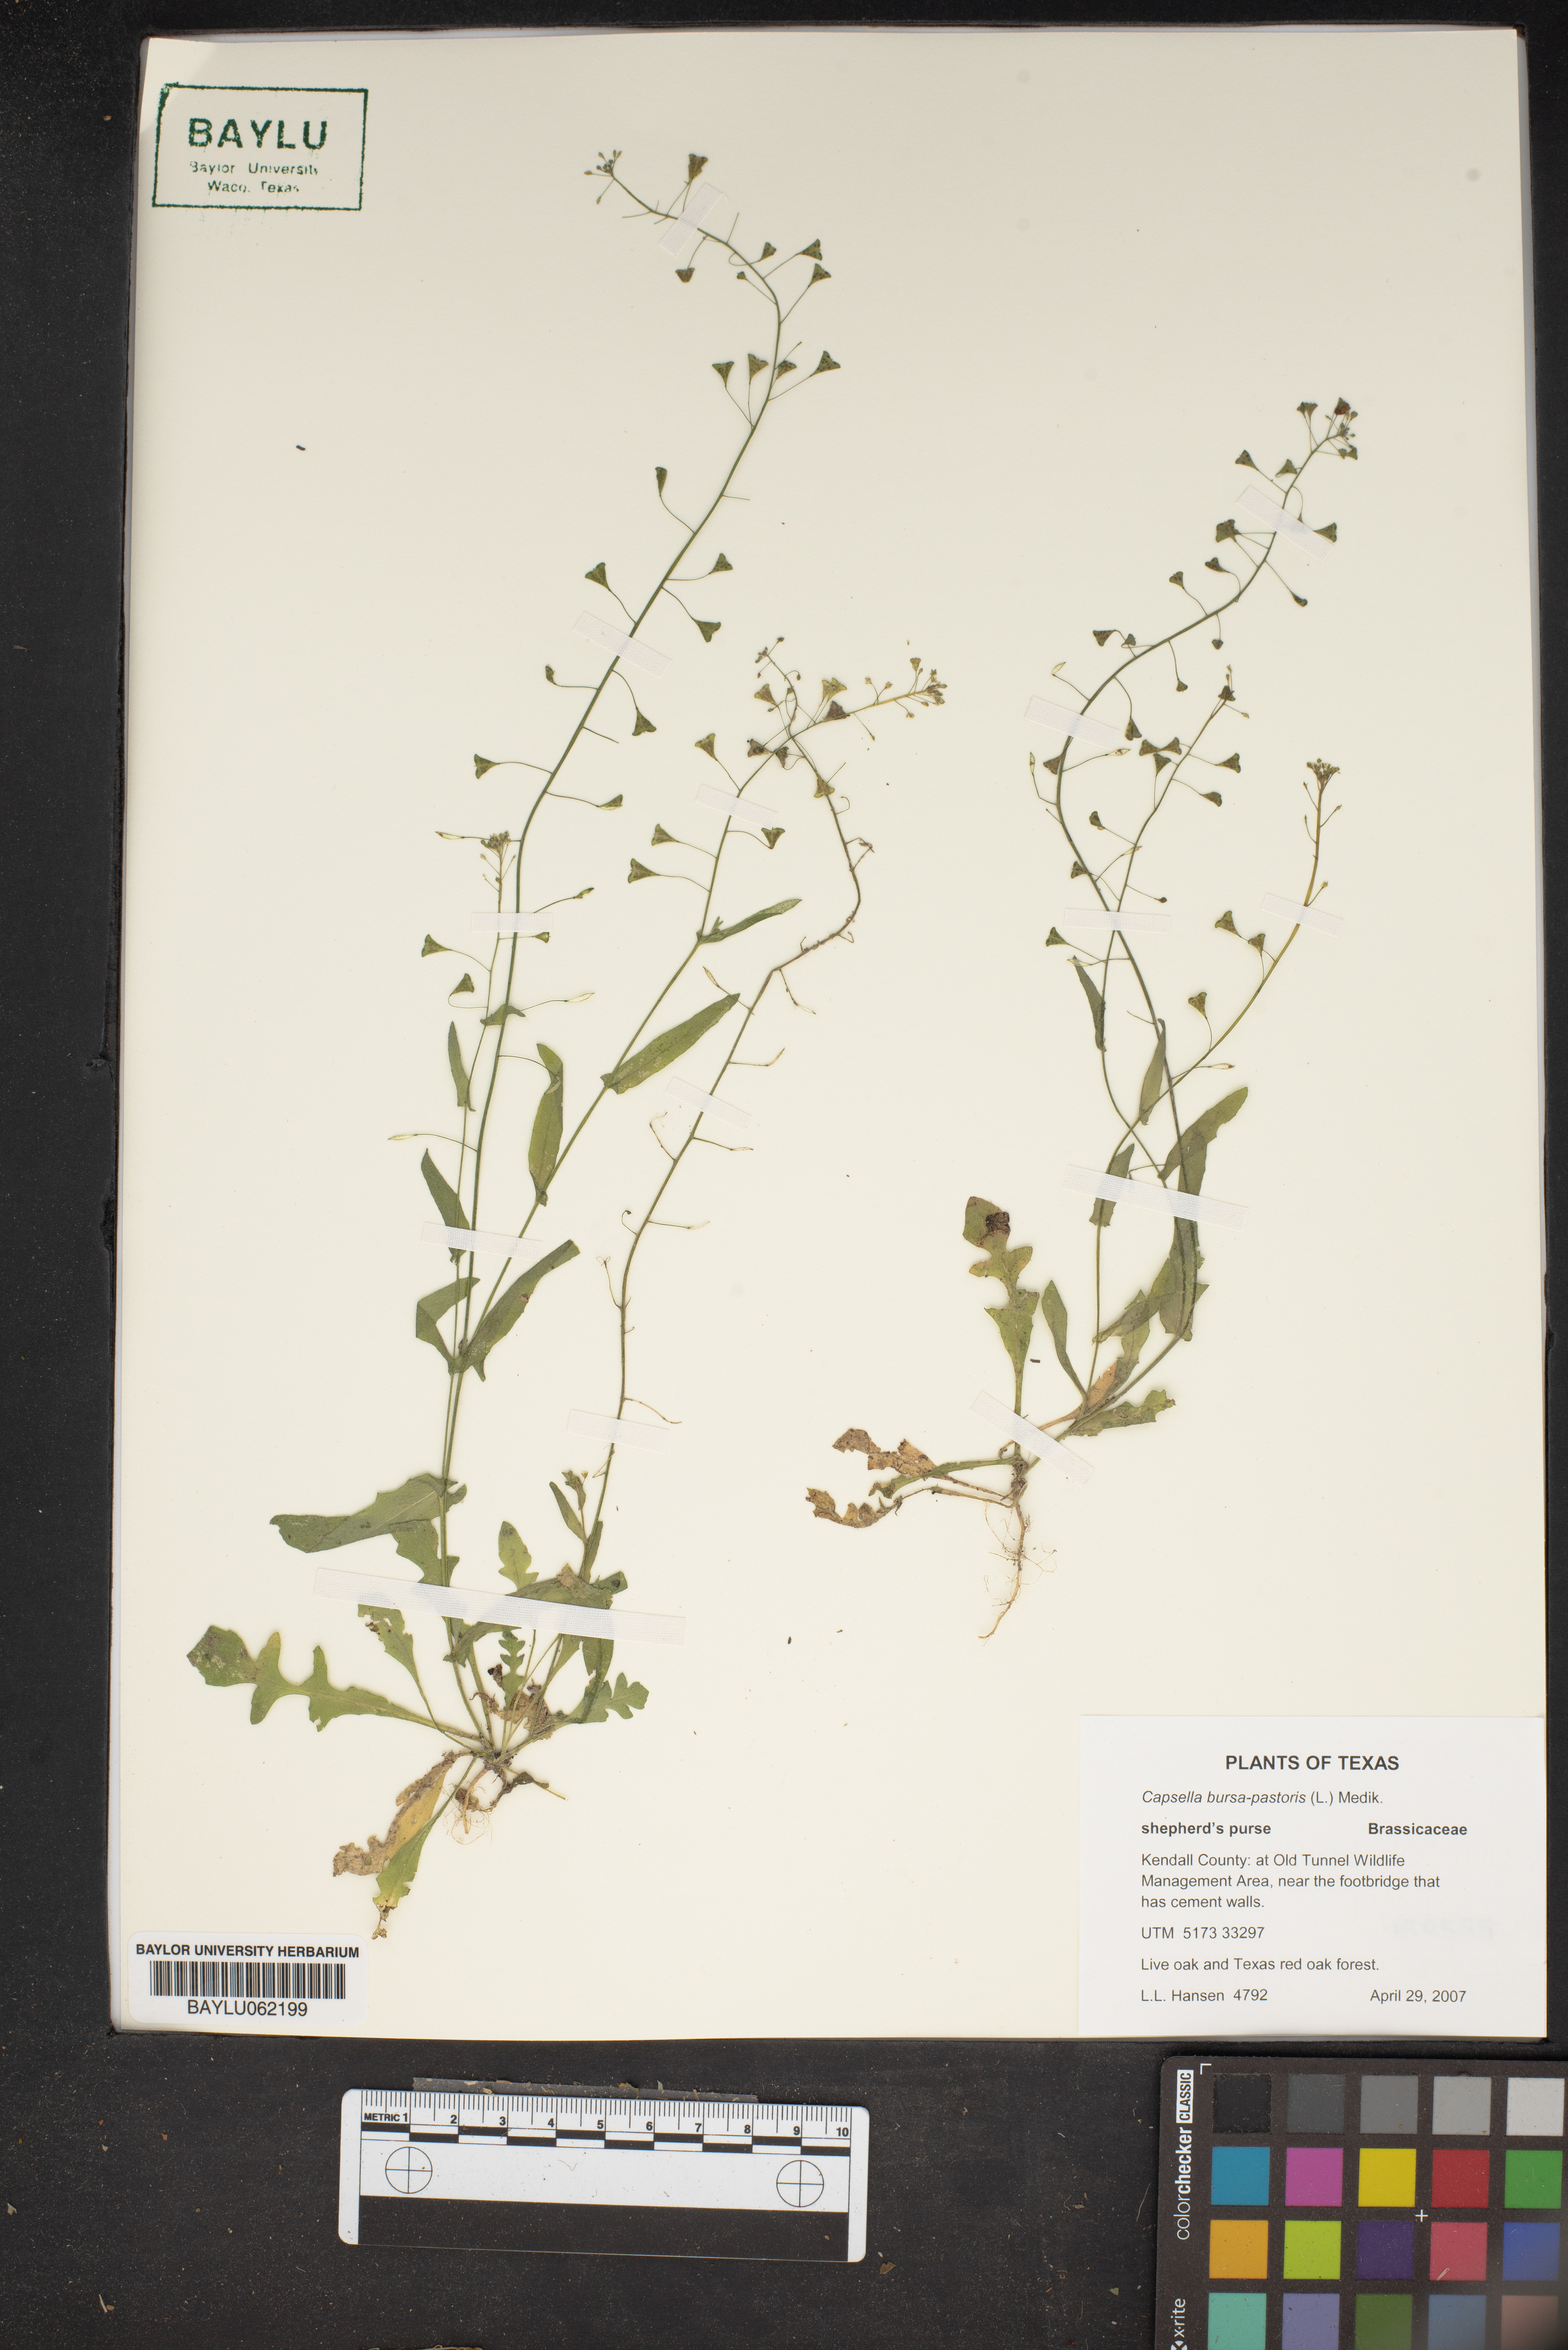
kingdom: Plantae
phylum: Tracheophyta
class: Magnoliopsida
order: Brassicales
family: Brassicaceae
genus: Capsella
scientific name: Capsella bursa-pastoris
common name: Shepherd's purse
